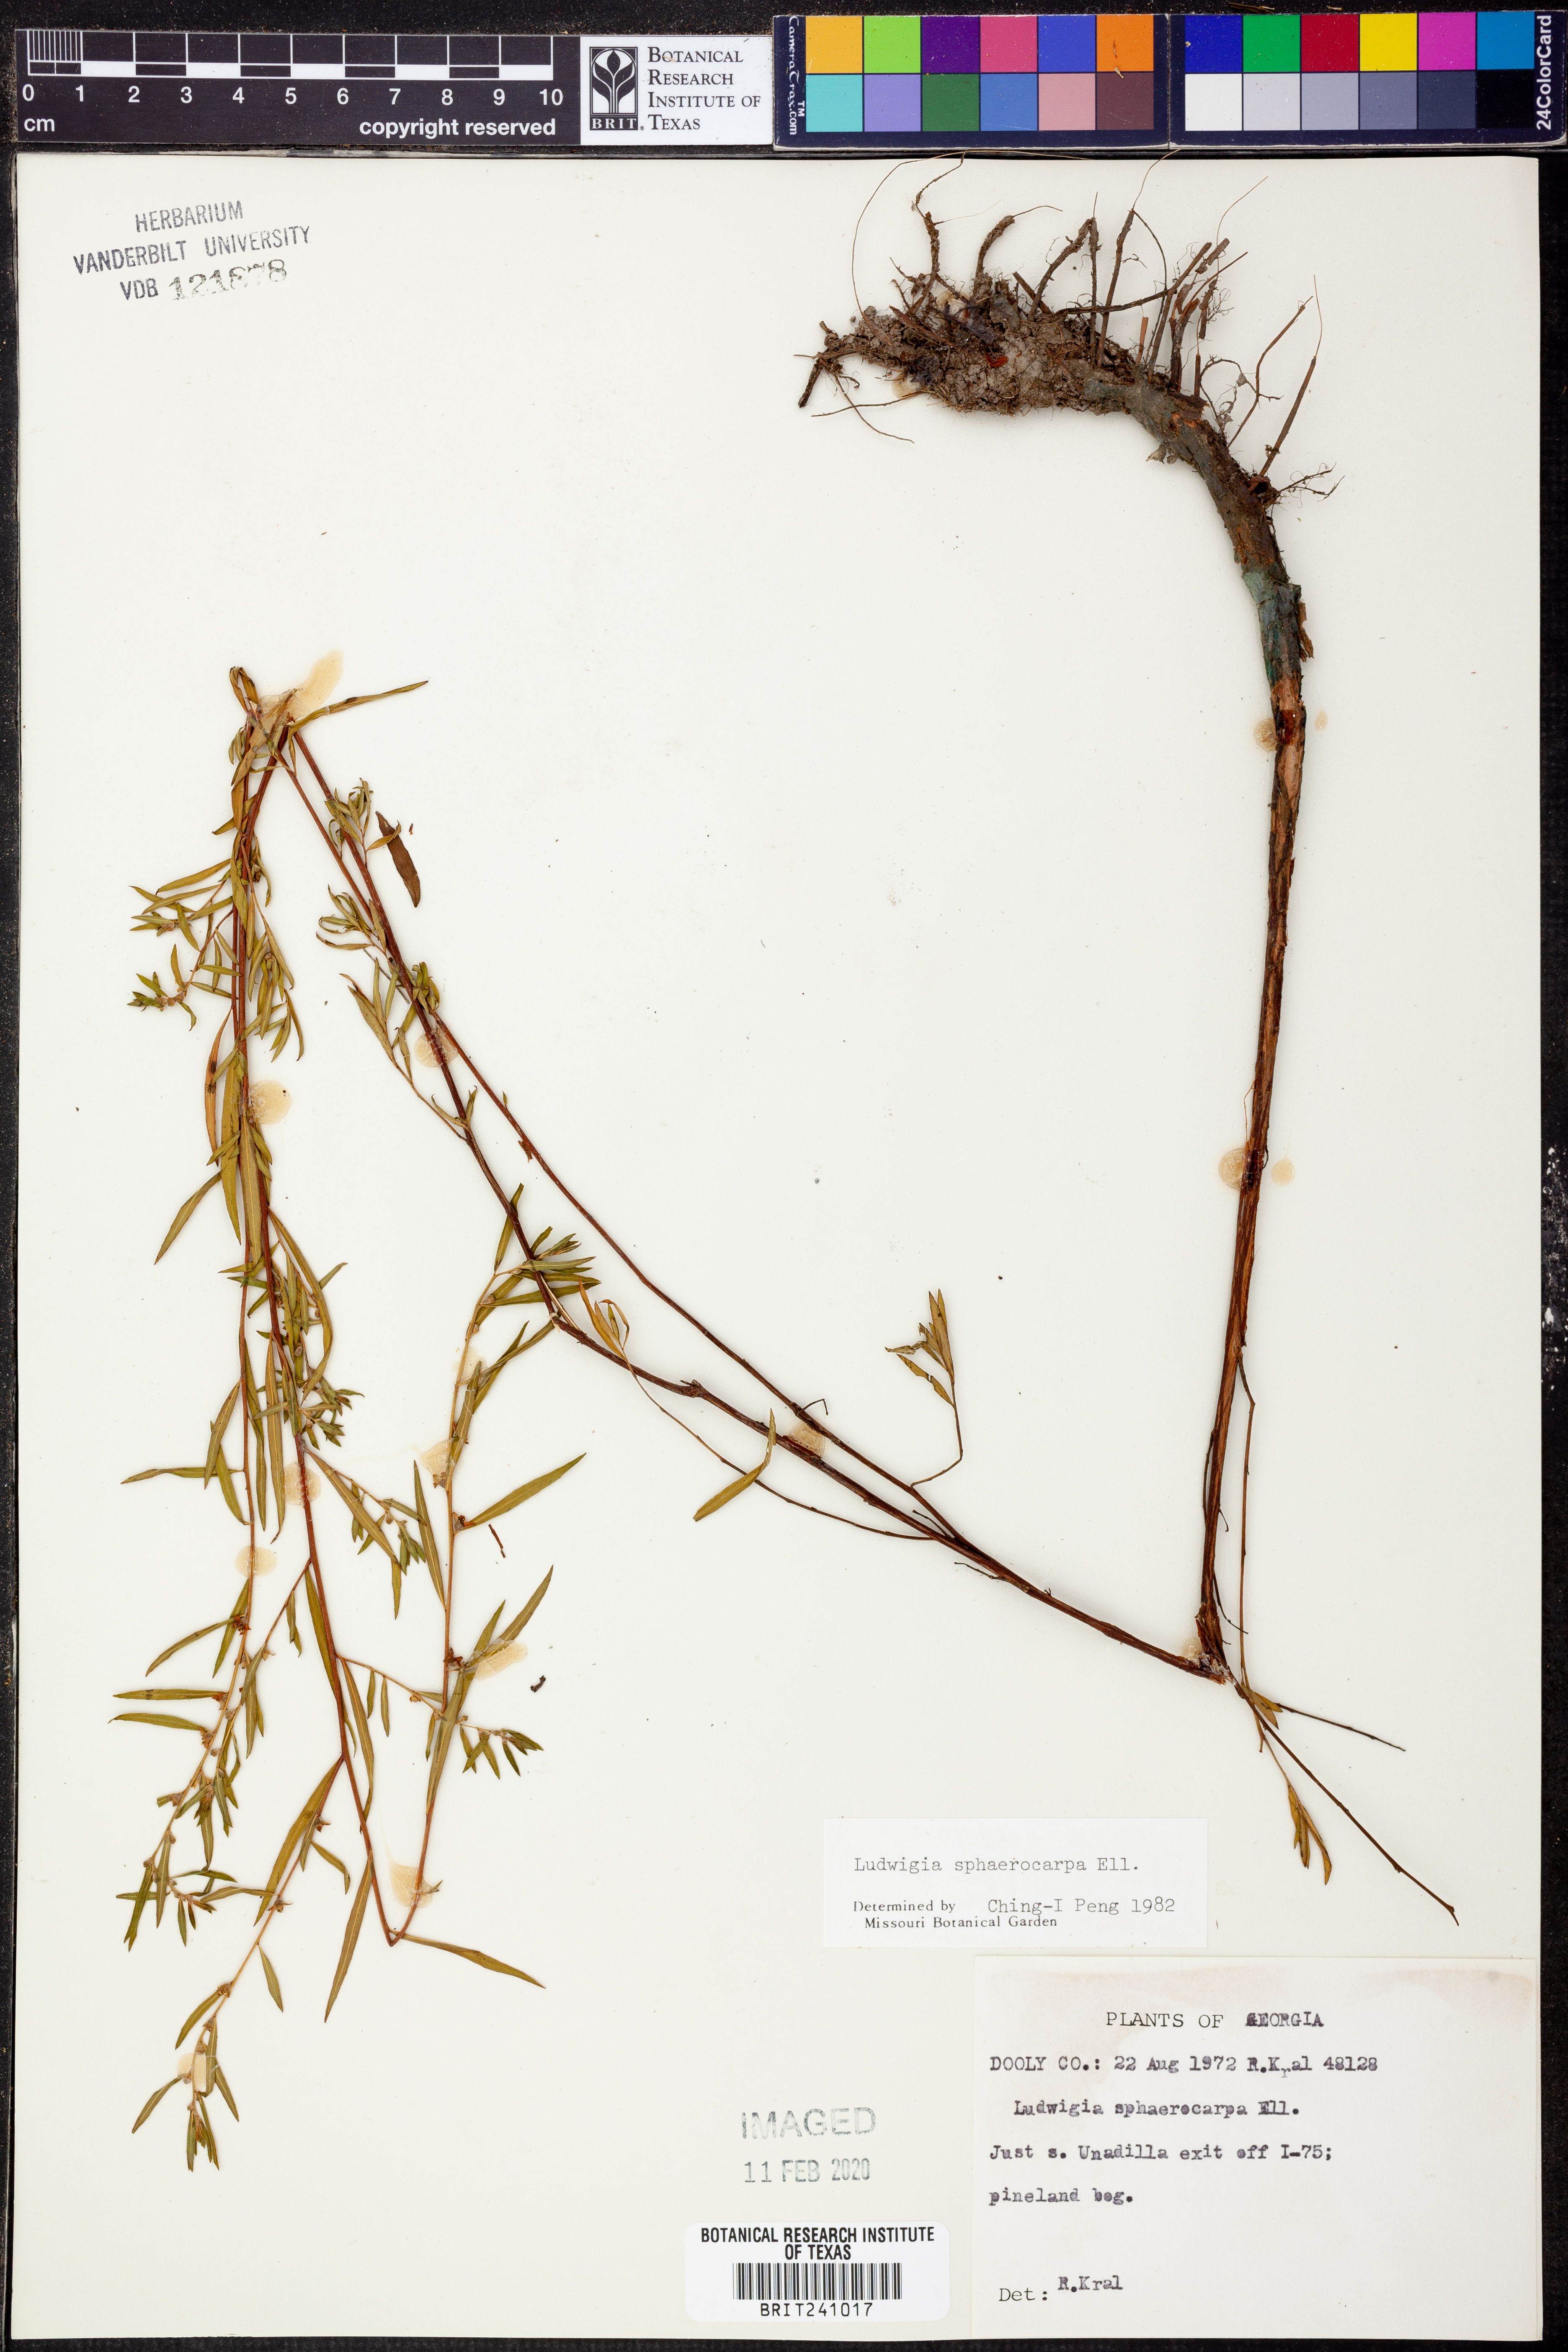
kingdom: Plantae
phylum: Tracheophyta
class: Magnoliopsida
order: Myrtales
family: Onagraceae
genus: Ludwigia
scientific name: Ludwigia sphaerocarpa
